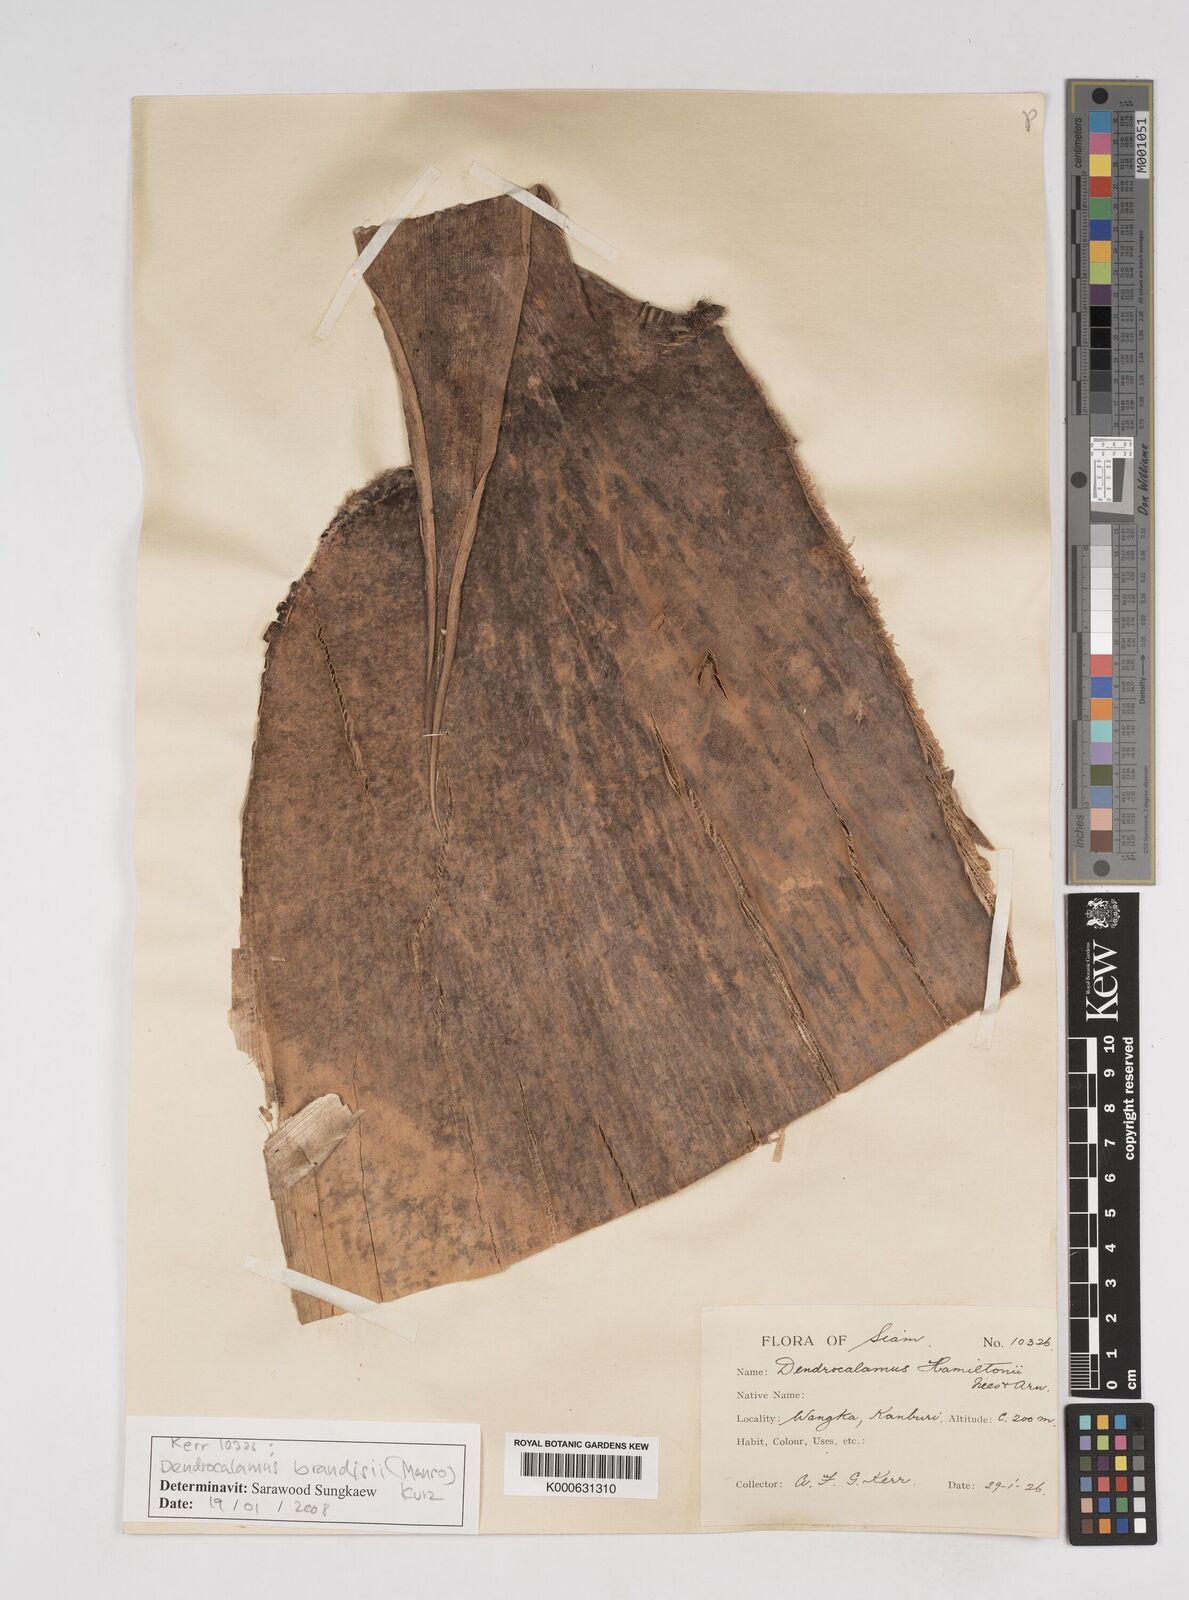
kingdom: Plantae
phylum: Tracheophyta
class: Liliopsida
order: Poales
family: Poaceae
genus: Dendrocalamus
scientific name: Dendrocalamus brandisii
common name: Velvetleaf bamboo
